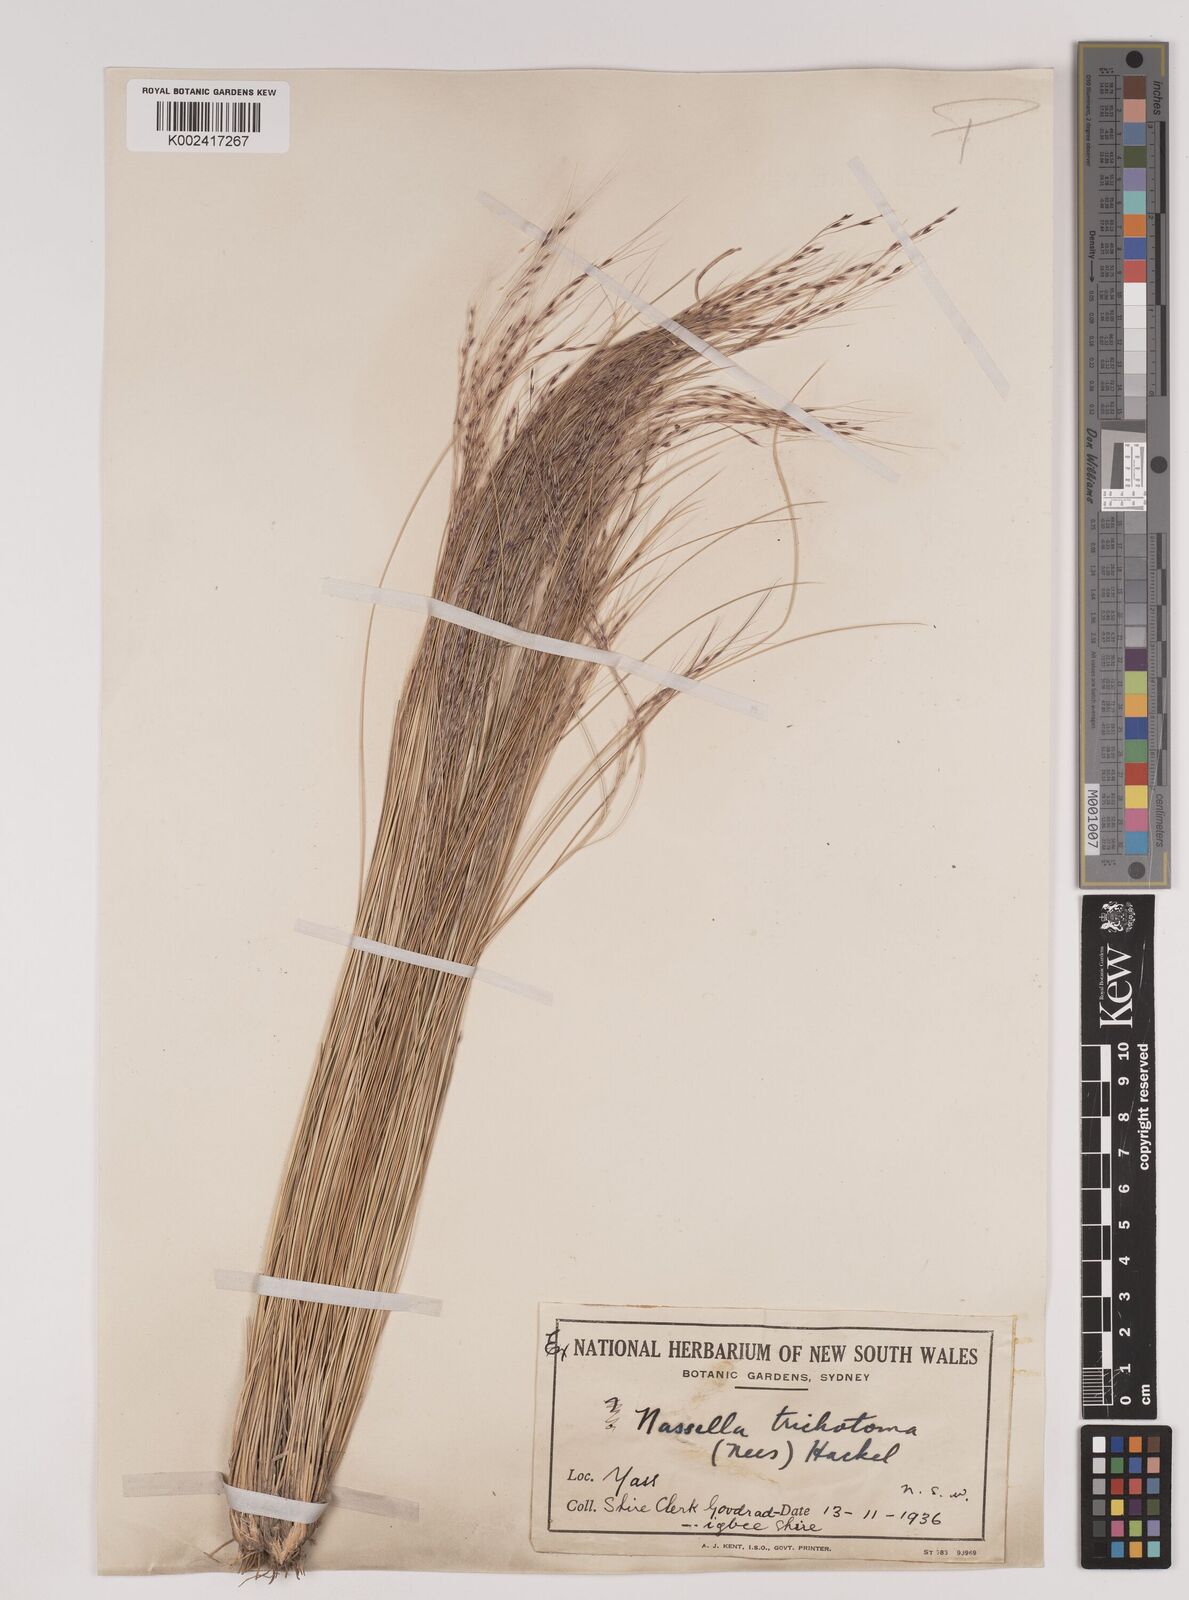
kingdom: Plantae
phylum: Tracheophyta
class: Liliopsida
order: Poales
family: Poaceae
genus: Nassella
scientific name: Nassella trichotoma
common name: Serrated tussock grass
